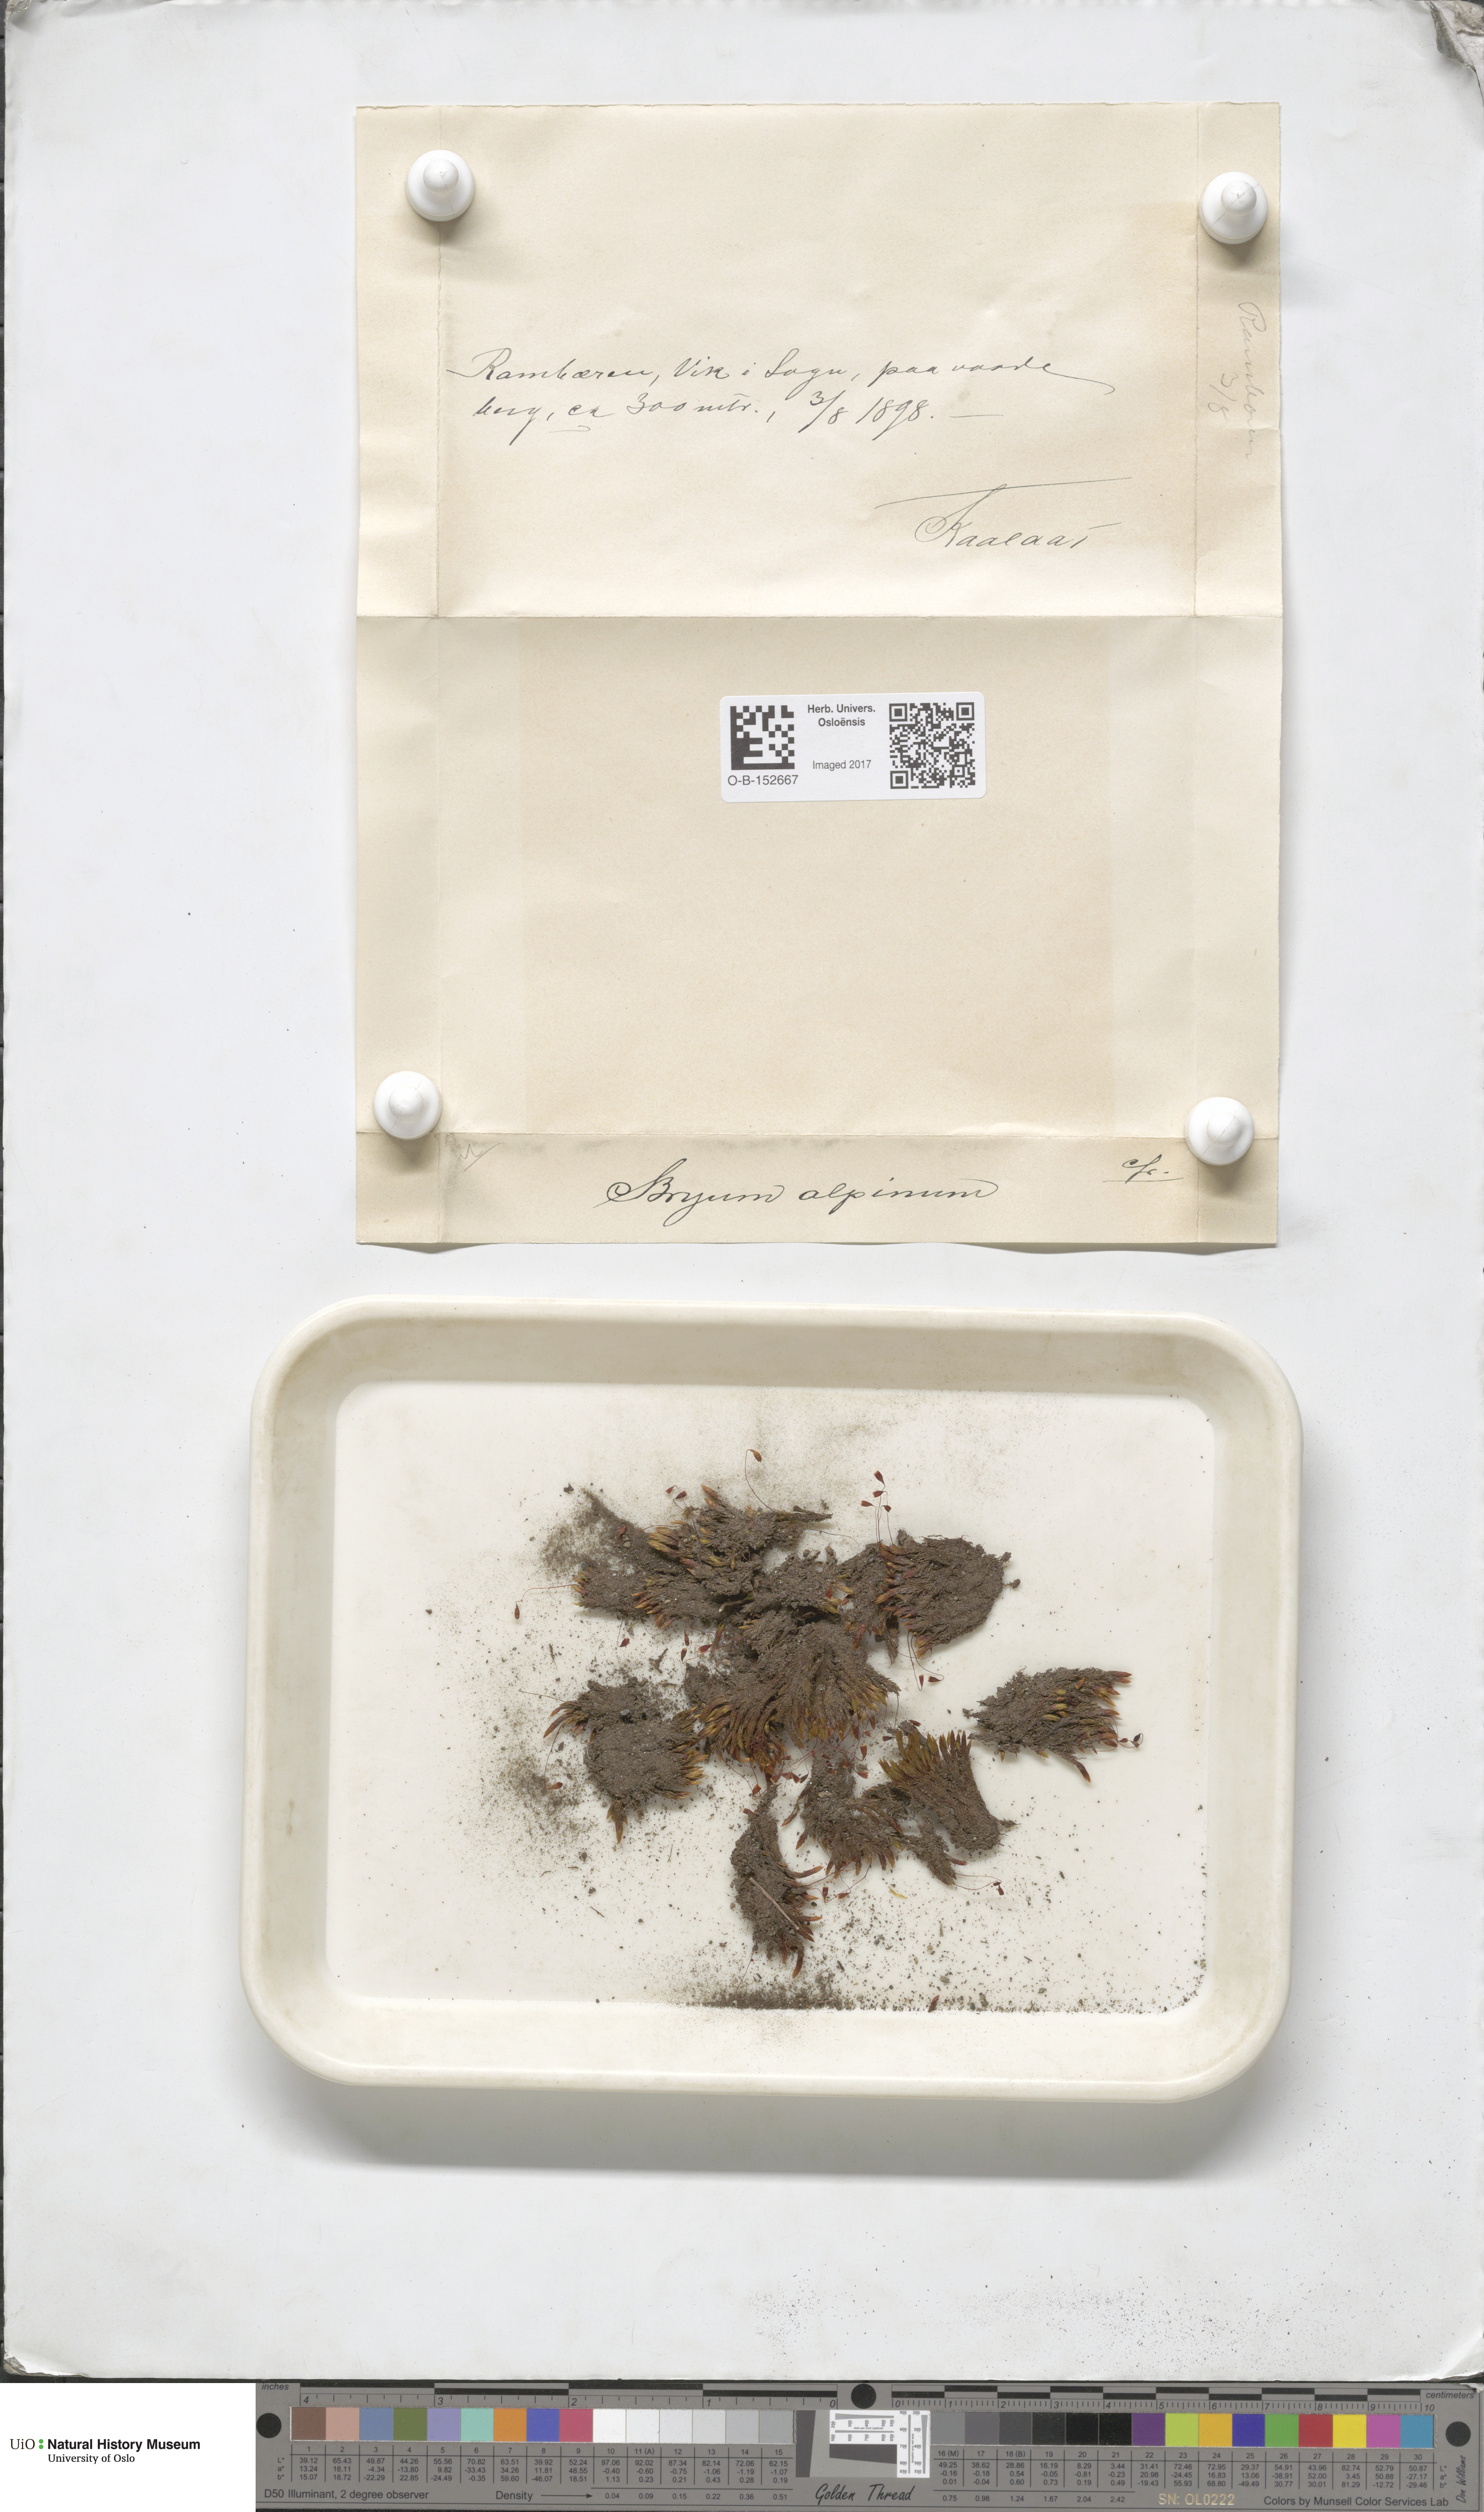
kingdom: Plantae
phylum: Bryophyta
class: Bryopsida
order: Bryales
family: Bryaceae
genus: Imbribryum
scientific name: Imbribryum alpinum
